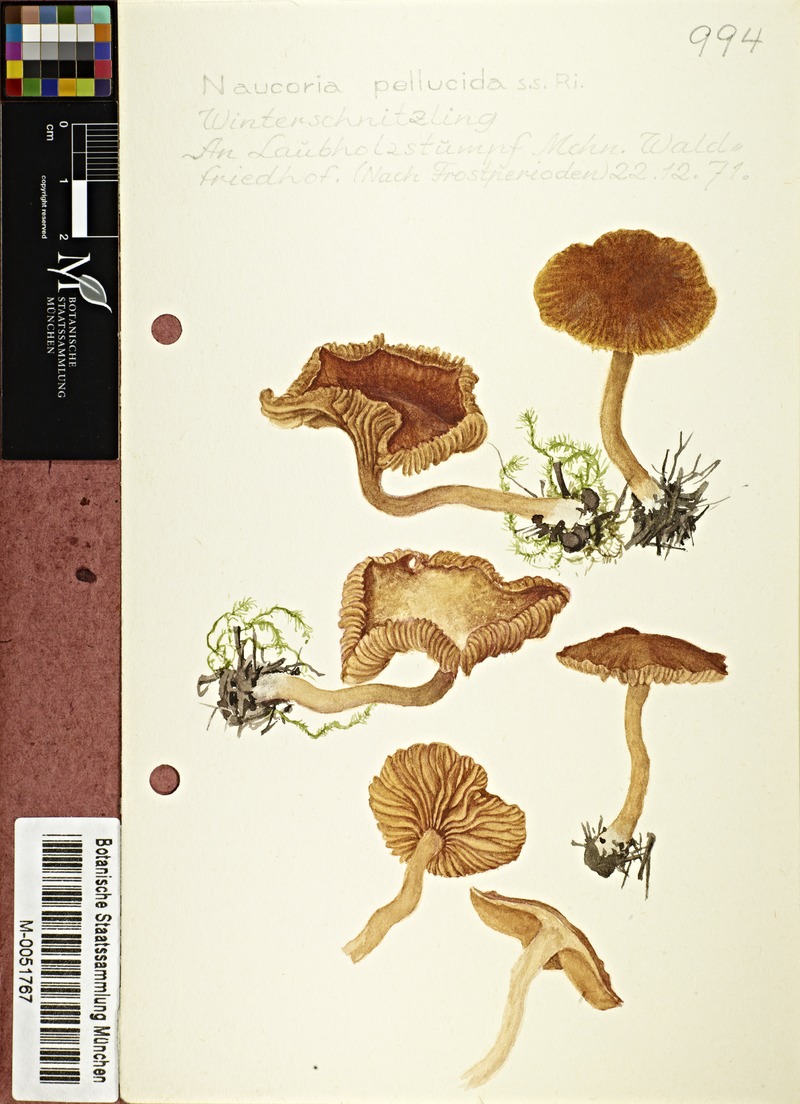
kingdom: Fungi
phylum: Basidiomycota
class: Agaricomycetes
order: Agaricales
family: Tubariaceae
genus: Tubaria
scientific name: Tubaria romagnesiana
